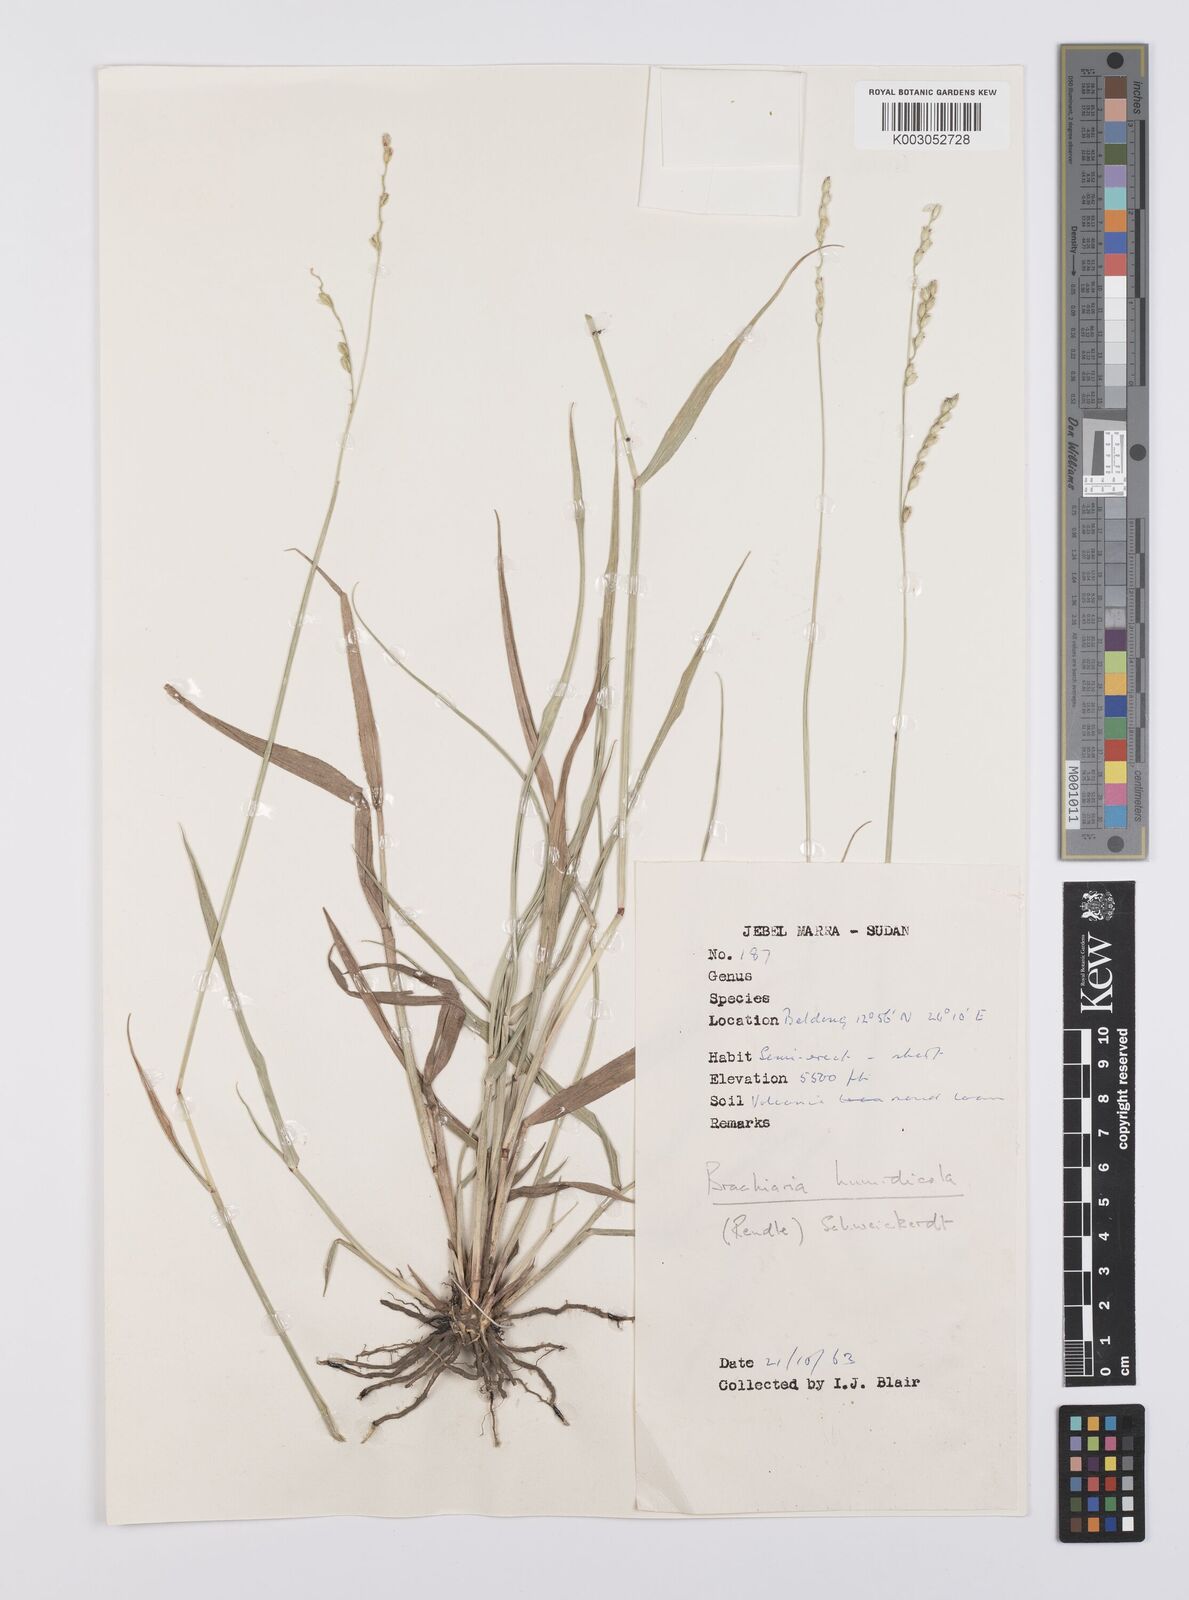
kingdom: Plantae
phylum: Tracheophyta
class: Liliopsida
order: Poales
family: Poaceae
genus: Urochloa
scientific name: Urochloa dictyoneura
